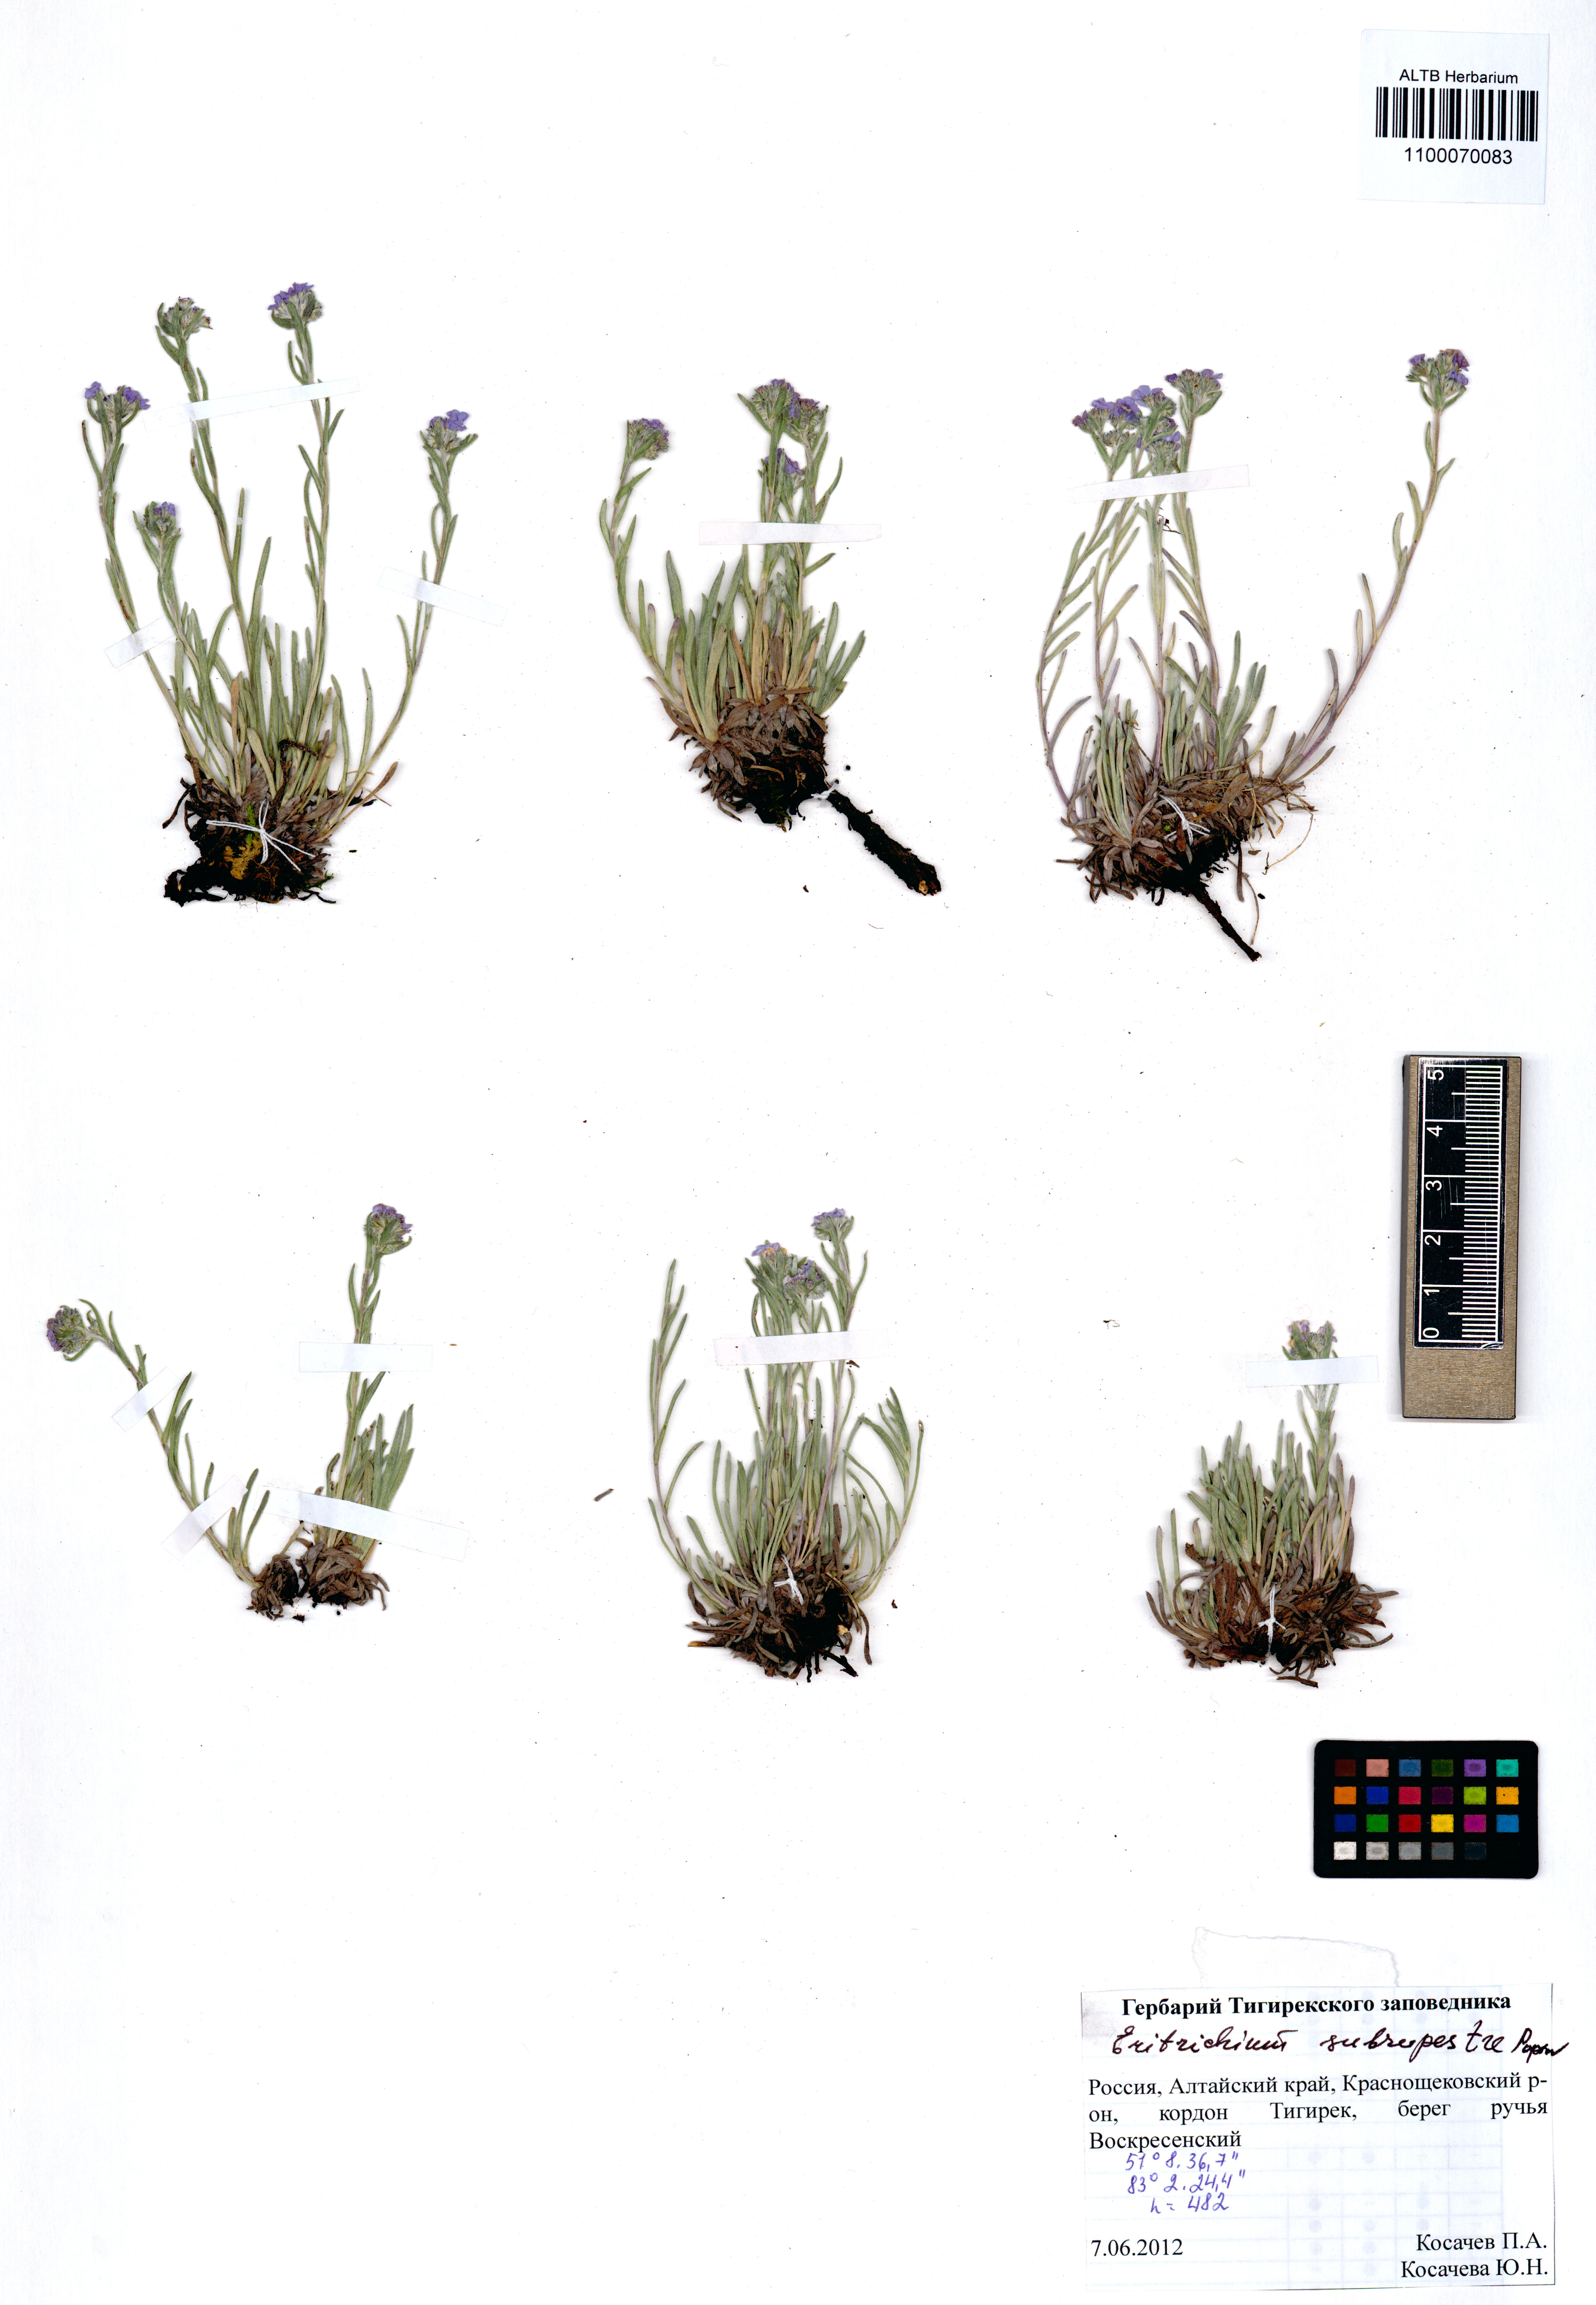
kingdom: Plantae
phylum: Tracheophyta
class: Magnoliopsida
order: Boraginales
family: Boraginaceae
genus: Eritrichium
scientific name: Eritrichium pauciflorum
